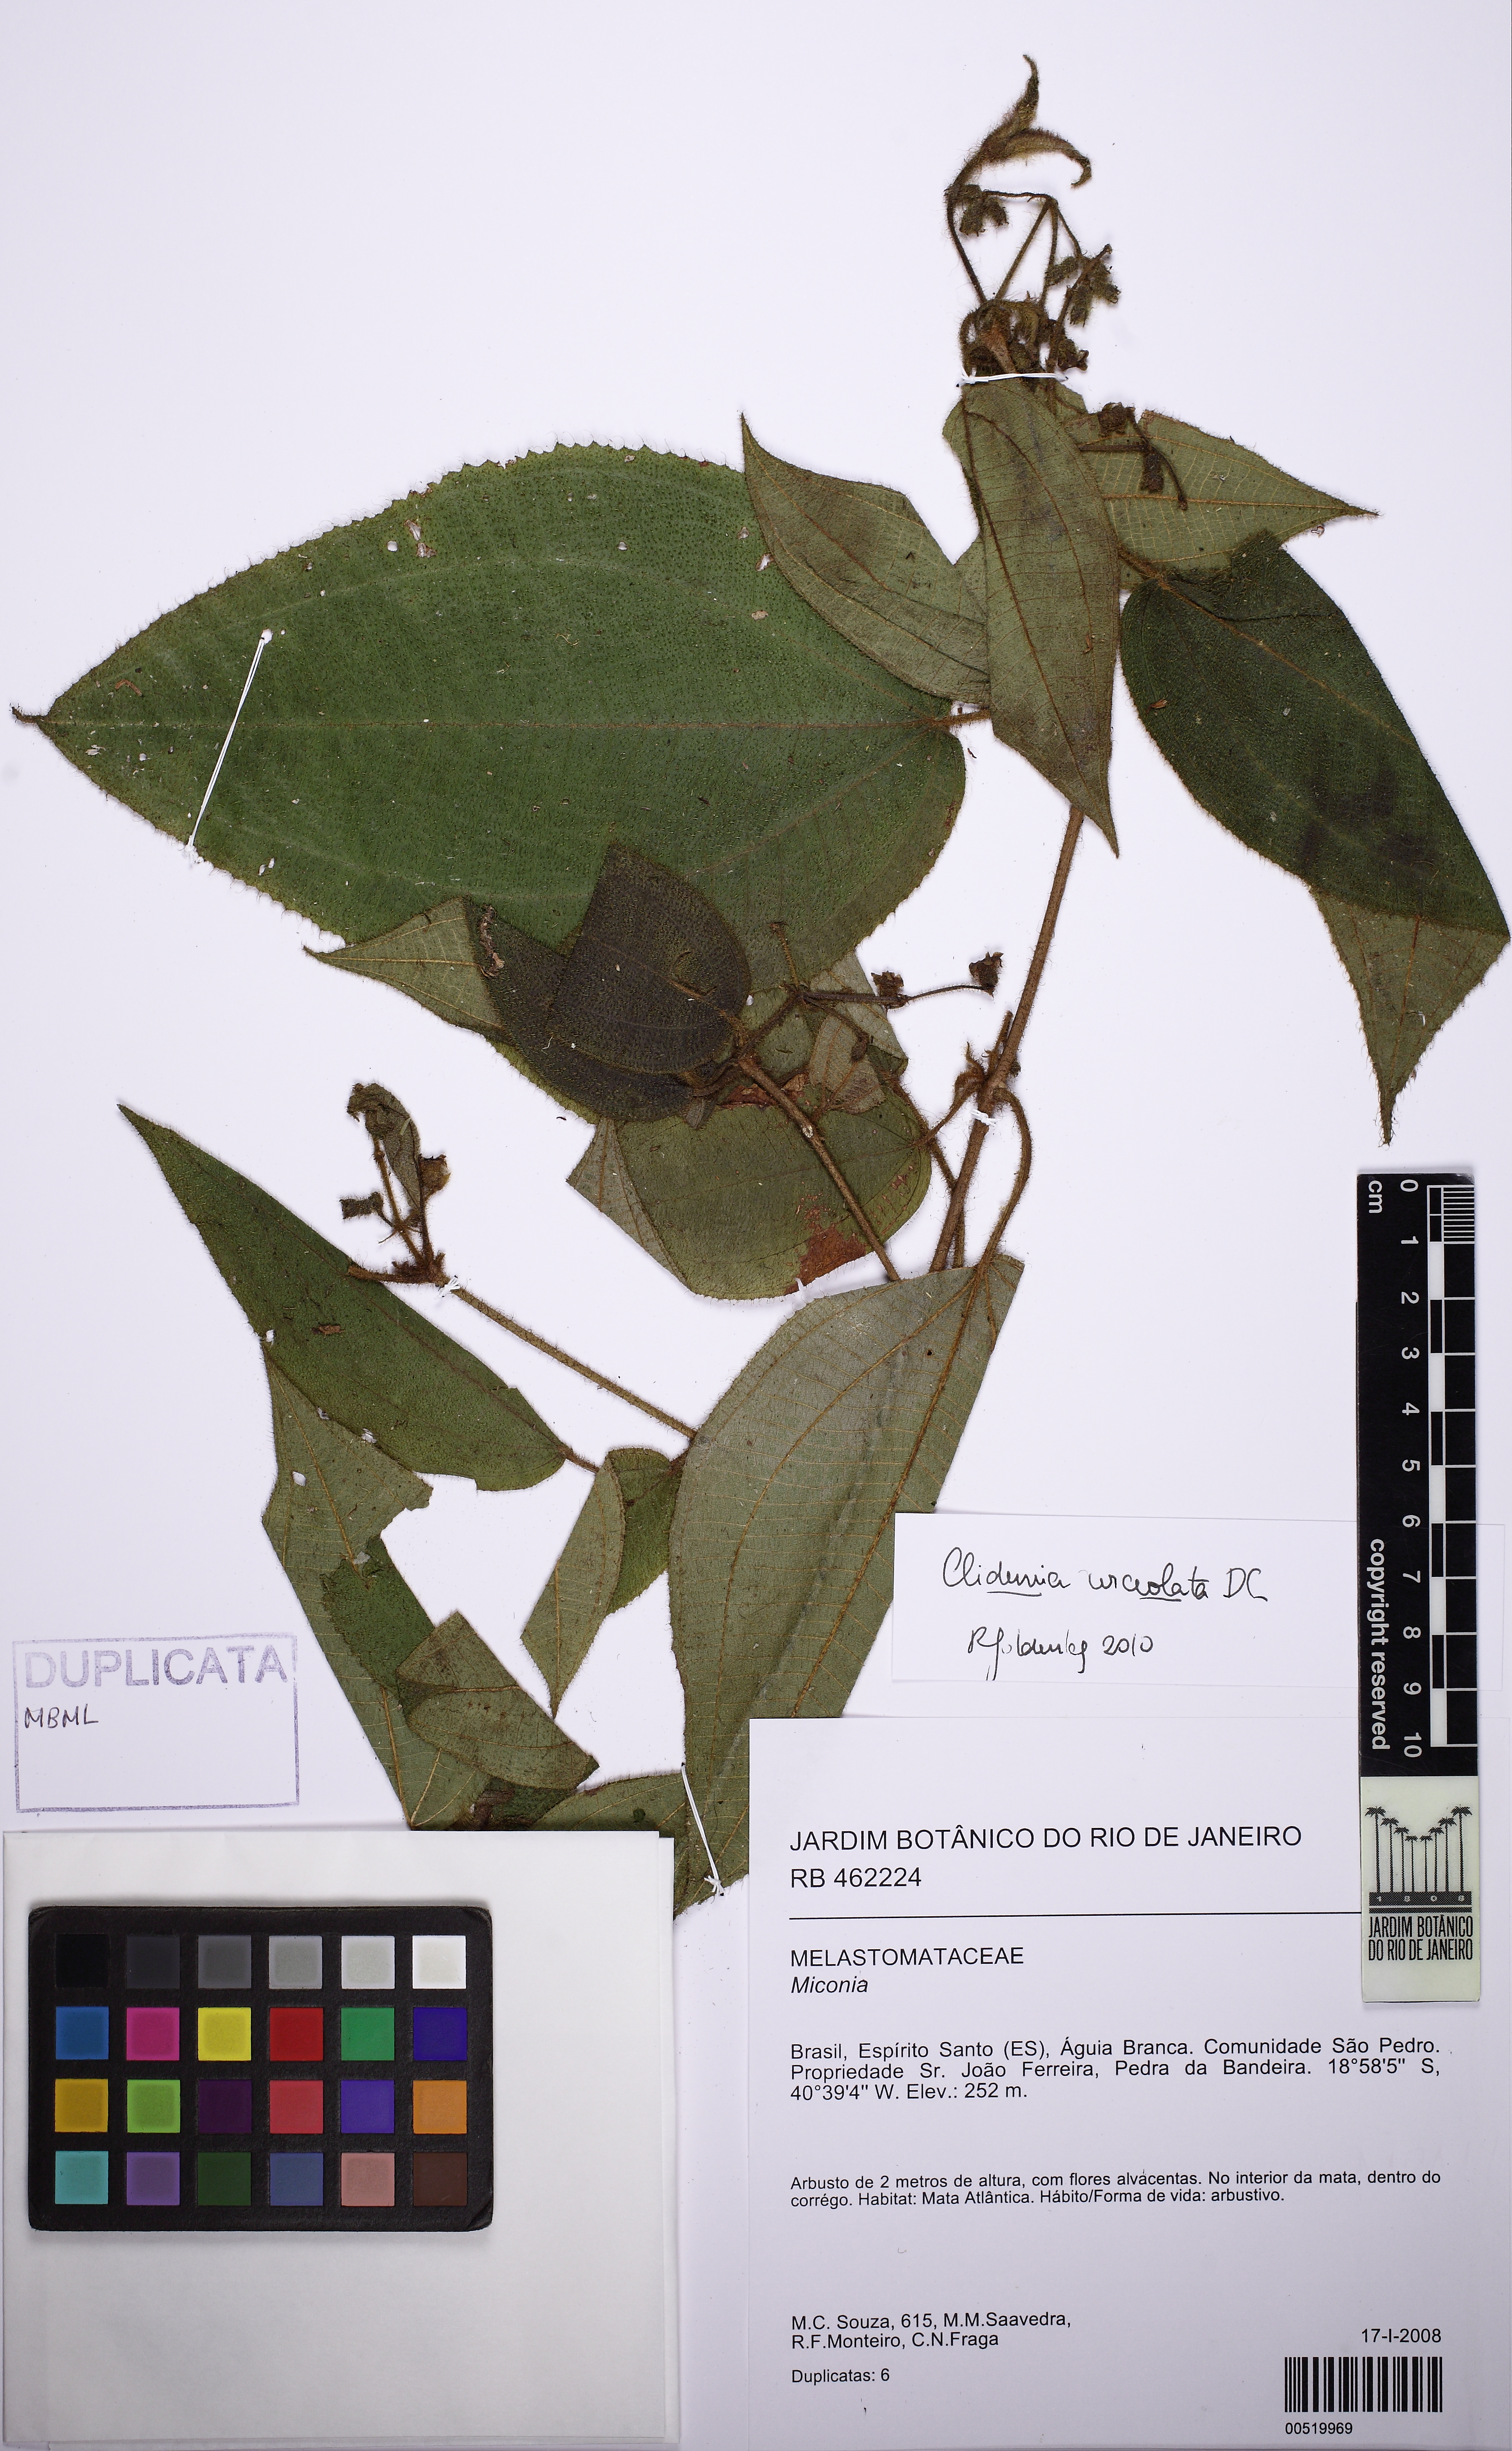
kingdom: Plantae
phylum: Tracheophyta
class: Magnoliopsida
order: Myrtales
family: Melastomataceae
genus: Miconia
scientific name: Miconia neourceolata
